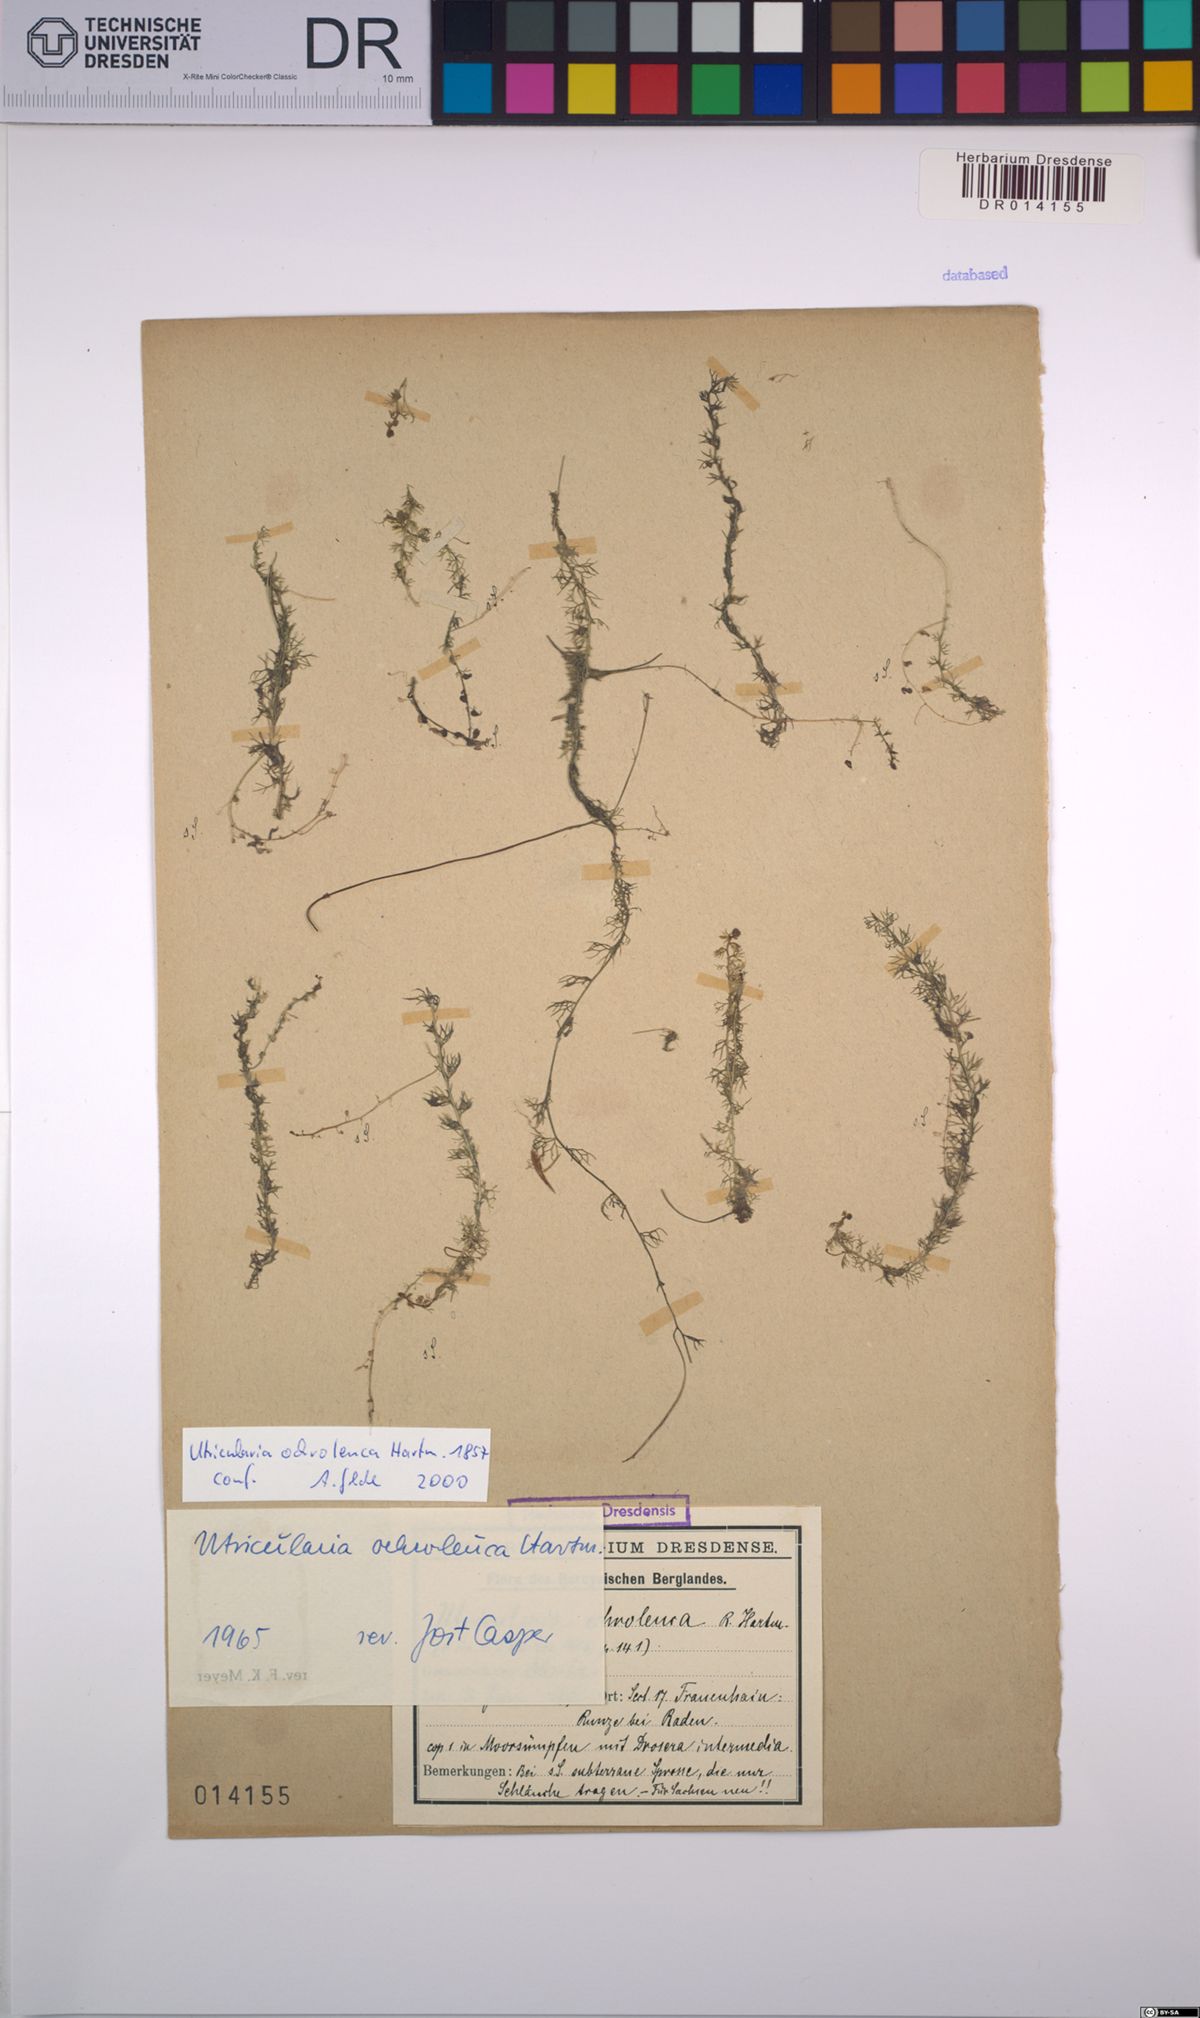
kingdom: Plantae
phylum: Tracheophyta
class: Magnoliopsida
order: Lamiales
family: Lentibulariaceae
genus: Utricularia
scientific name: Utricularia ochroleuca
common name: Pale bladderwort
